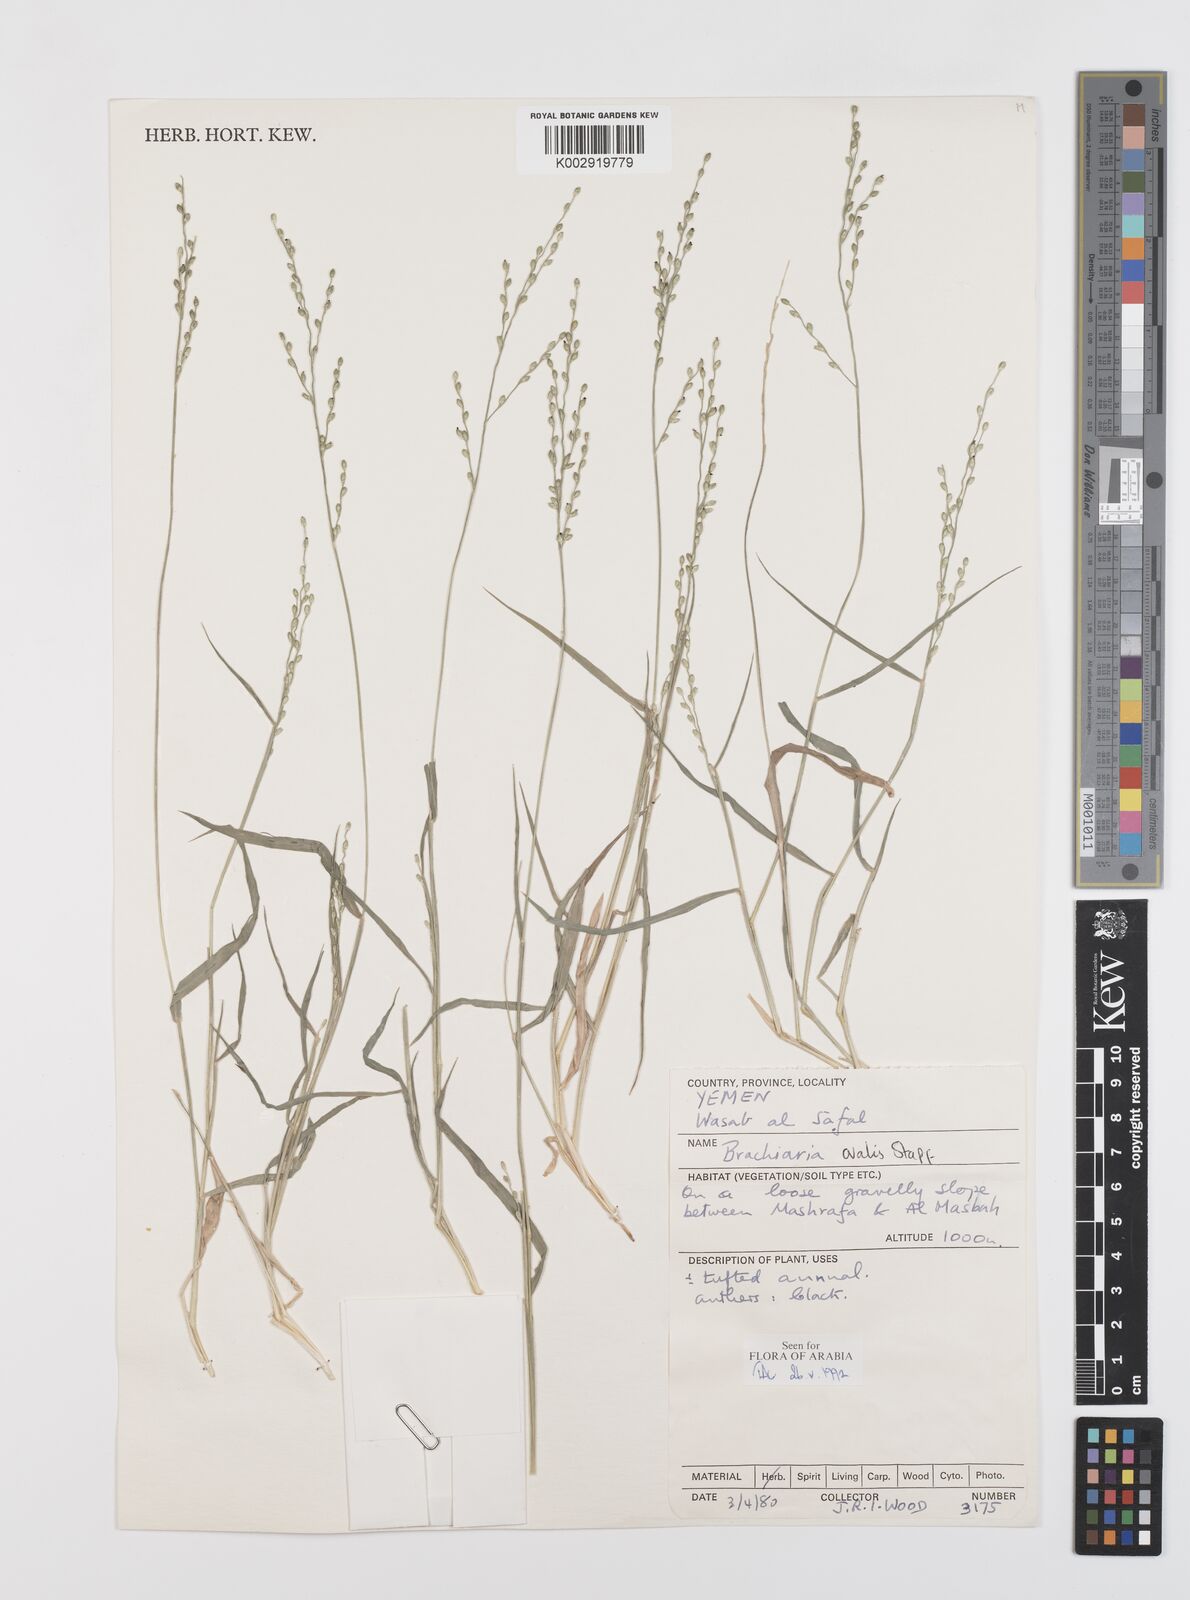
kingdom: Plantae
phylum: Tracheophyta
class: Liliopsida
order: Poales
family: Poaceae
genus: Urochloa
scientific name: Urochloa ovalis
